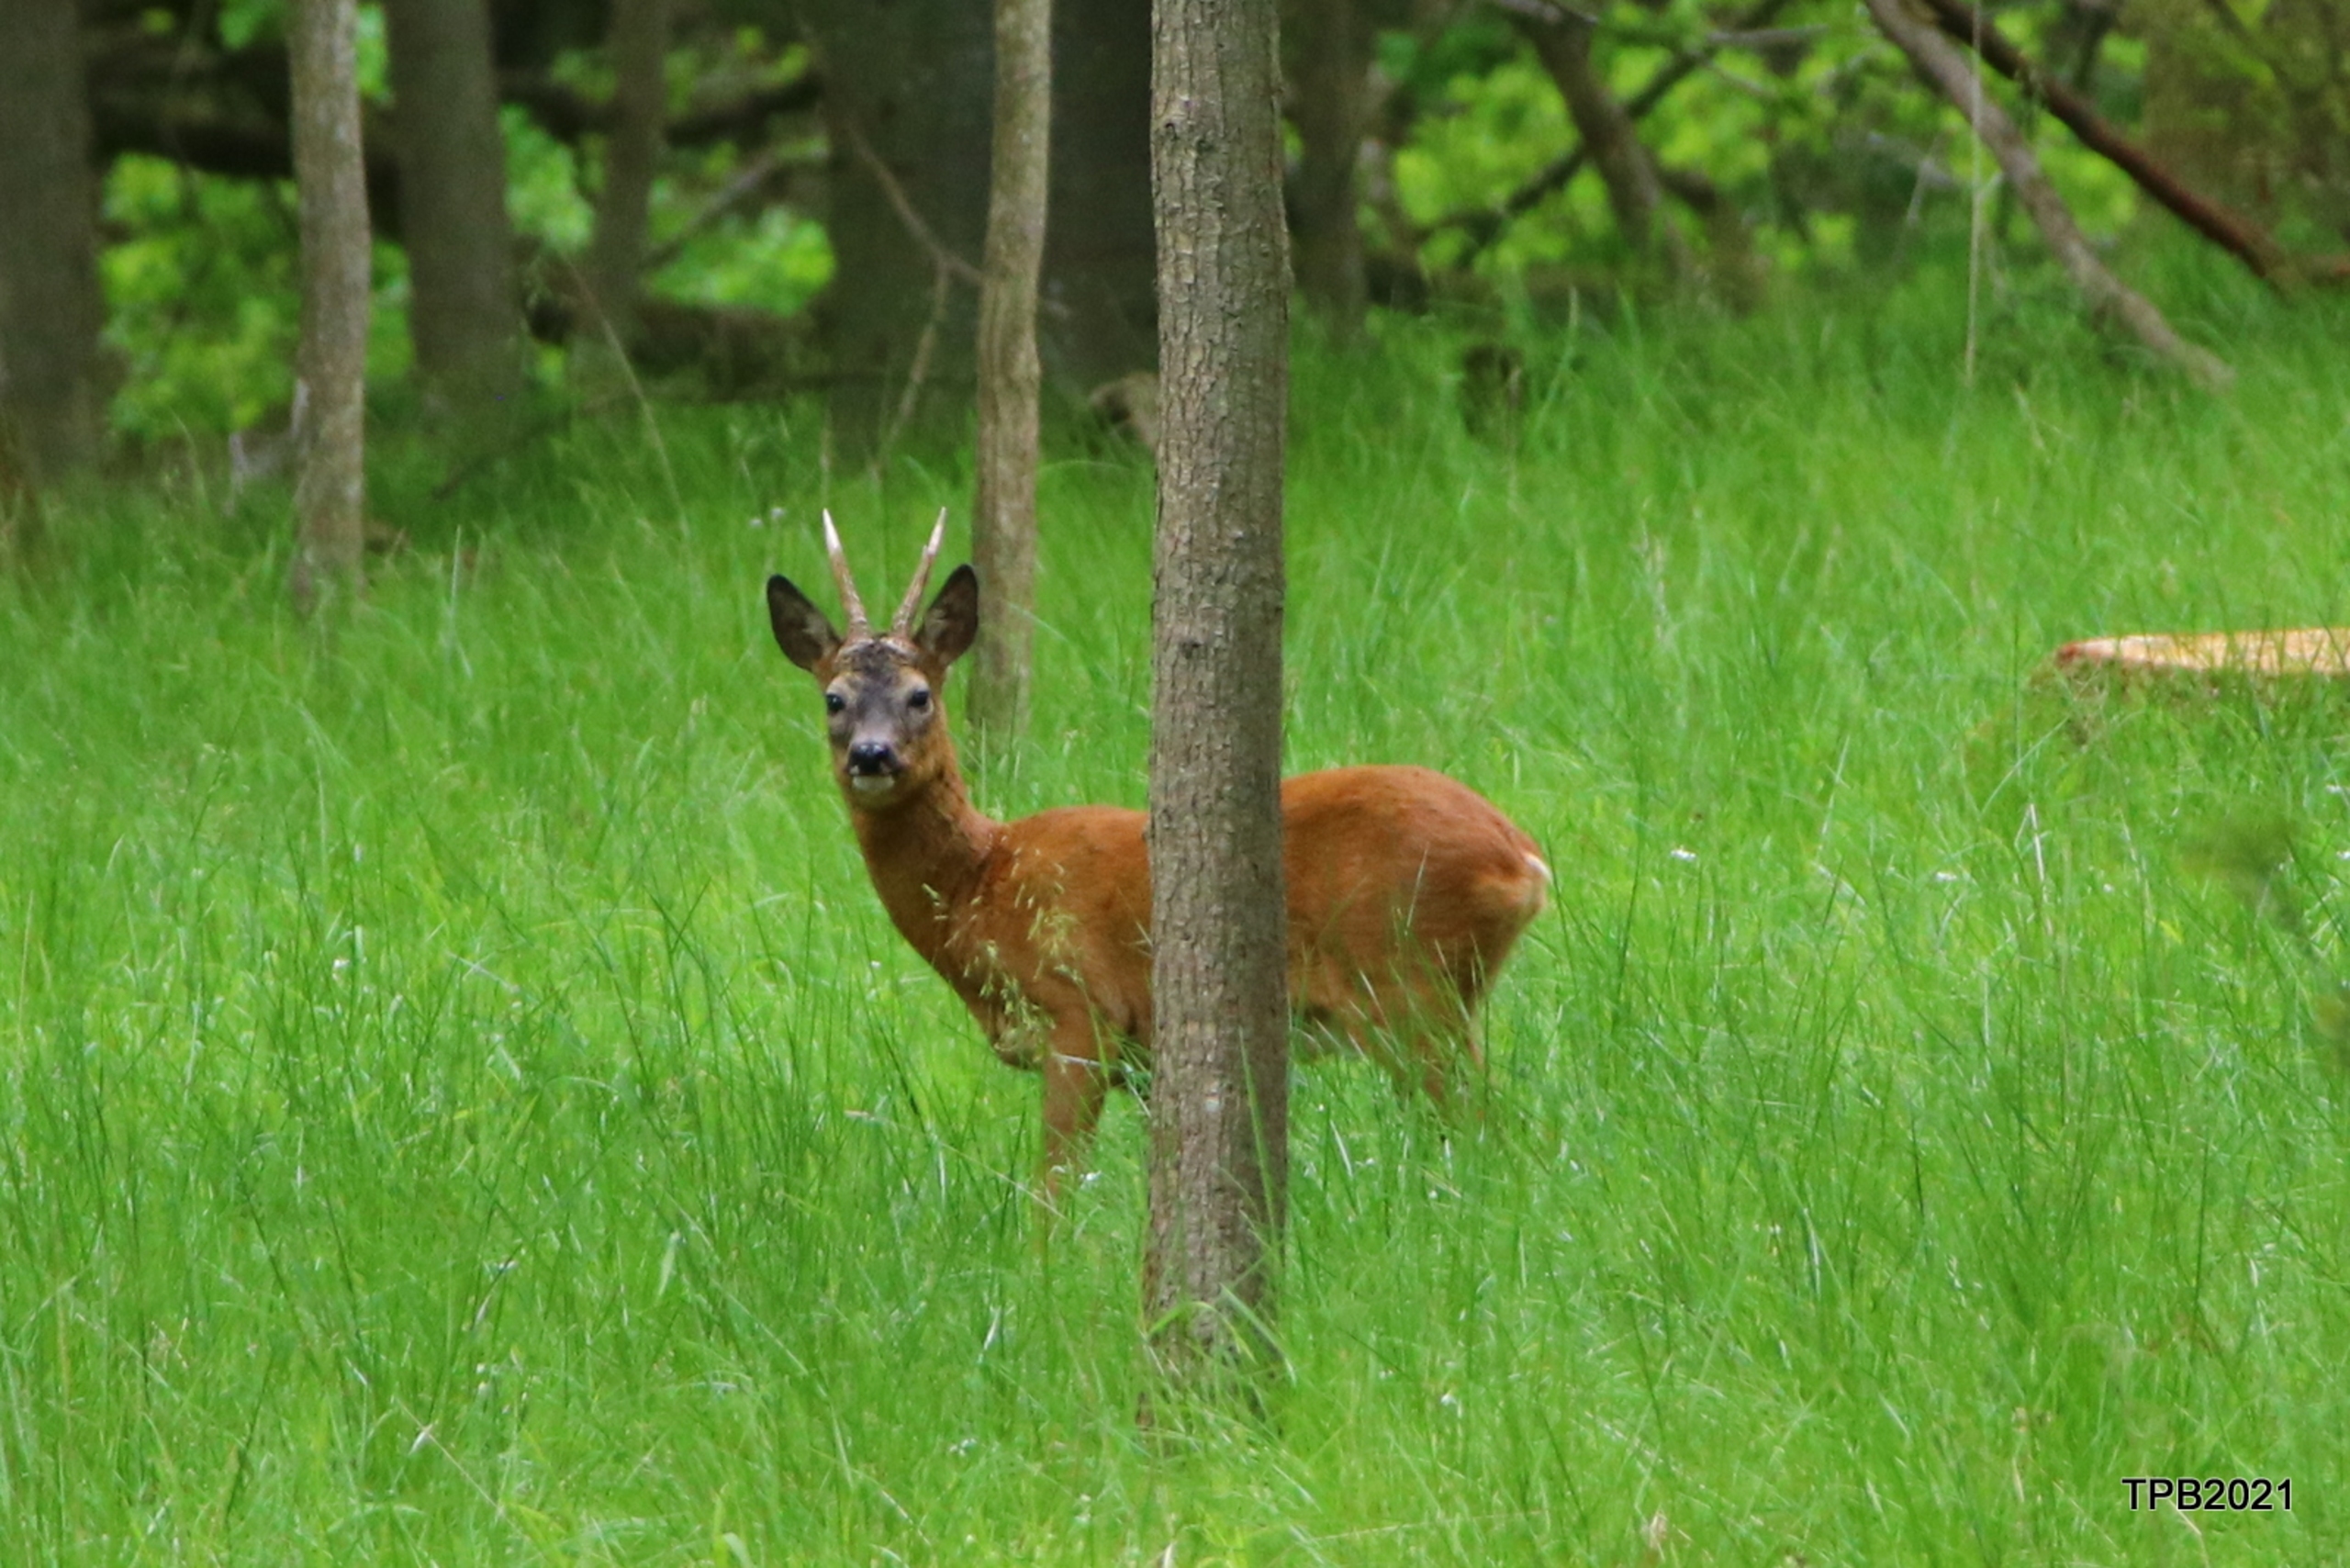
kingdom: Animalia
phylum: Chordata
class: Mammalia
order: Artiodactyla
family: Cervidae
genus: Capreolus
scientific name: Capreolus capreolus
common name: Rådyr
